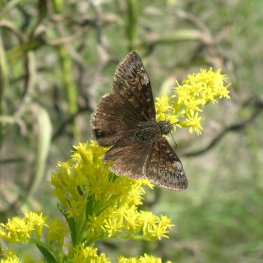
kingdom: Animalia
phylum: Arthropoda
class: Insecta
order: Lepidoptera
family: Hesperiidae
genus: Gesta
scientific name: Gesta
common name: Wild Indigo Duskywing
